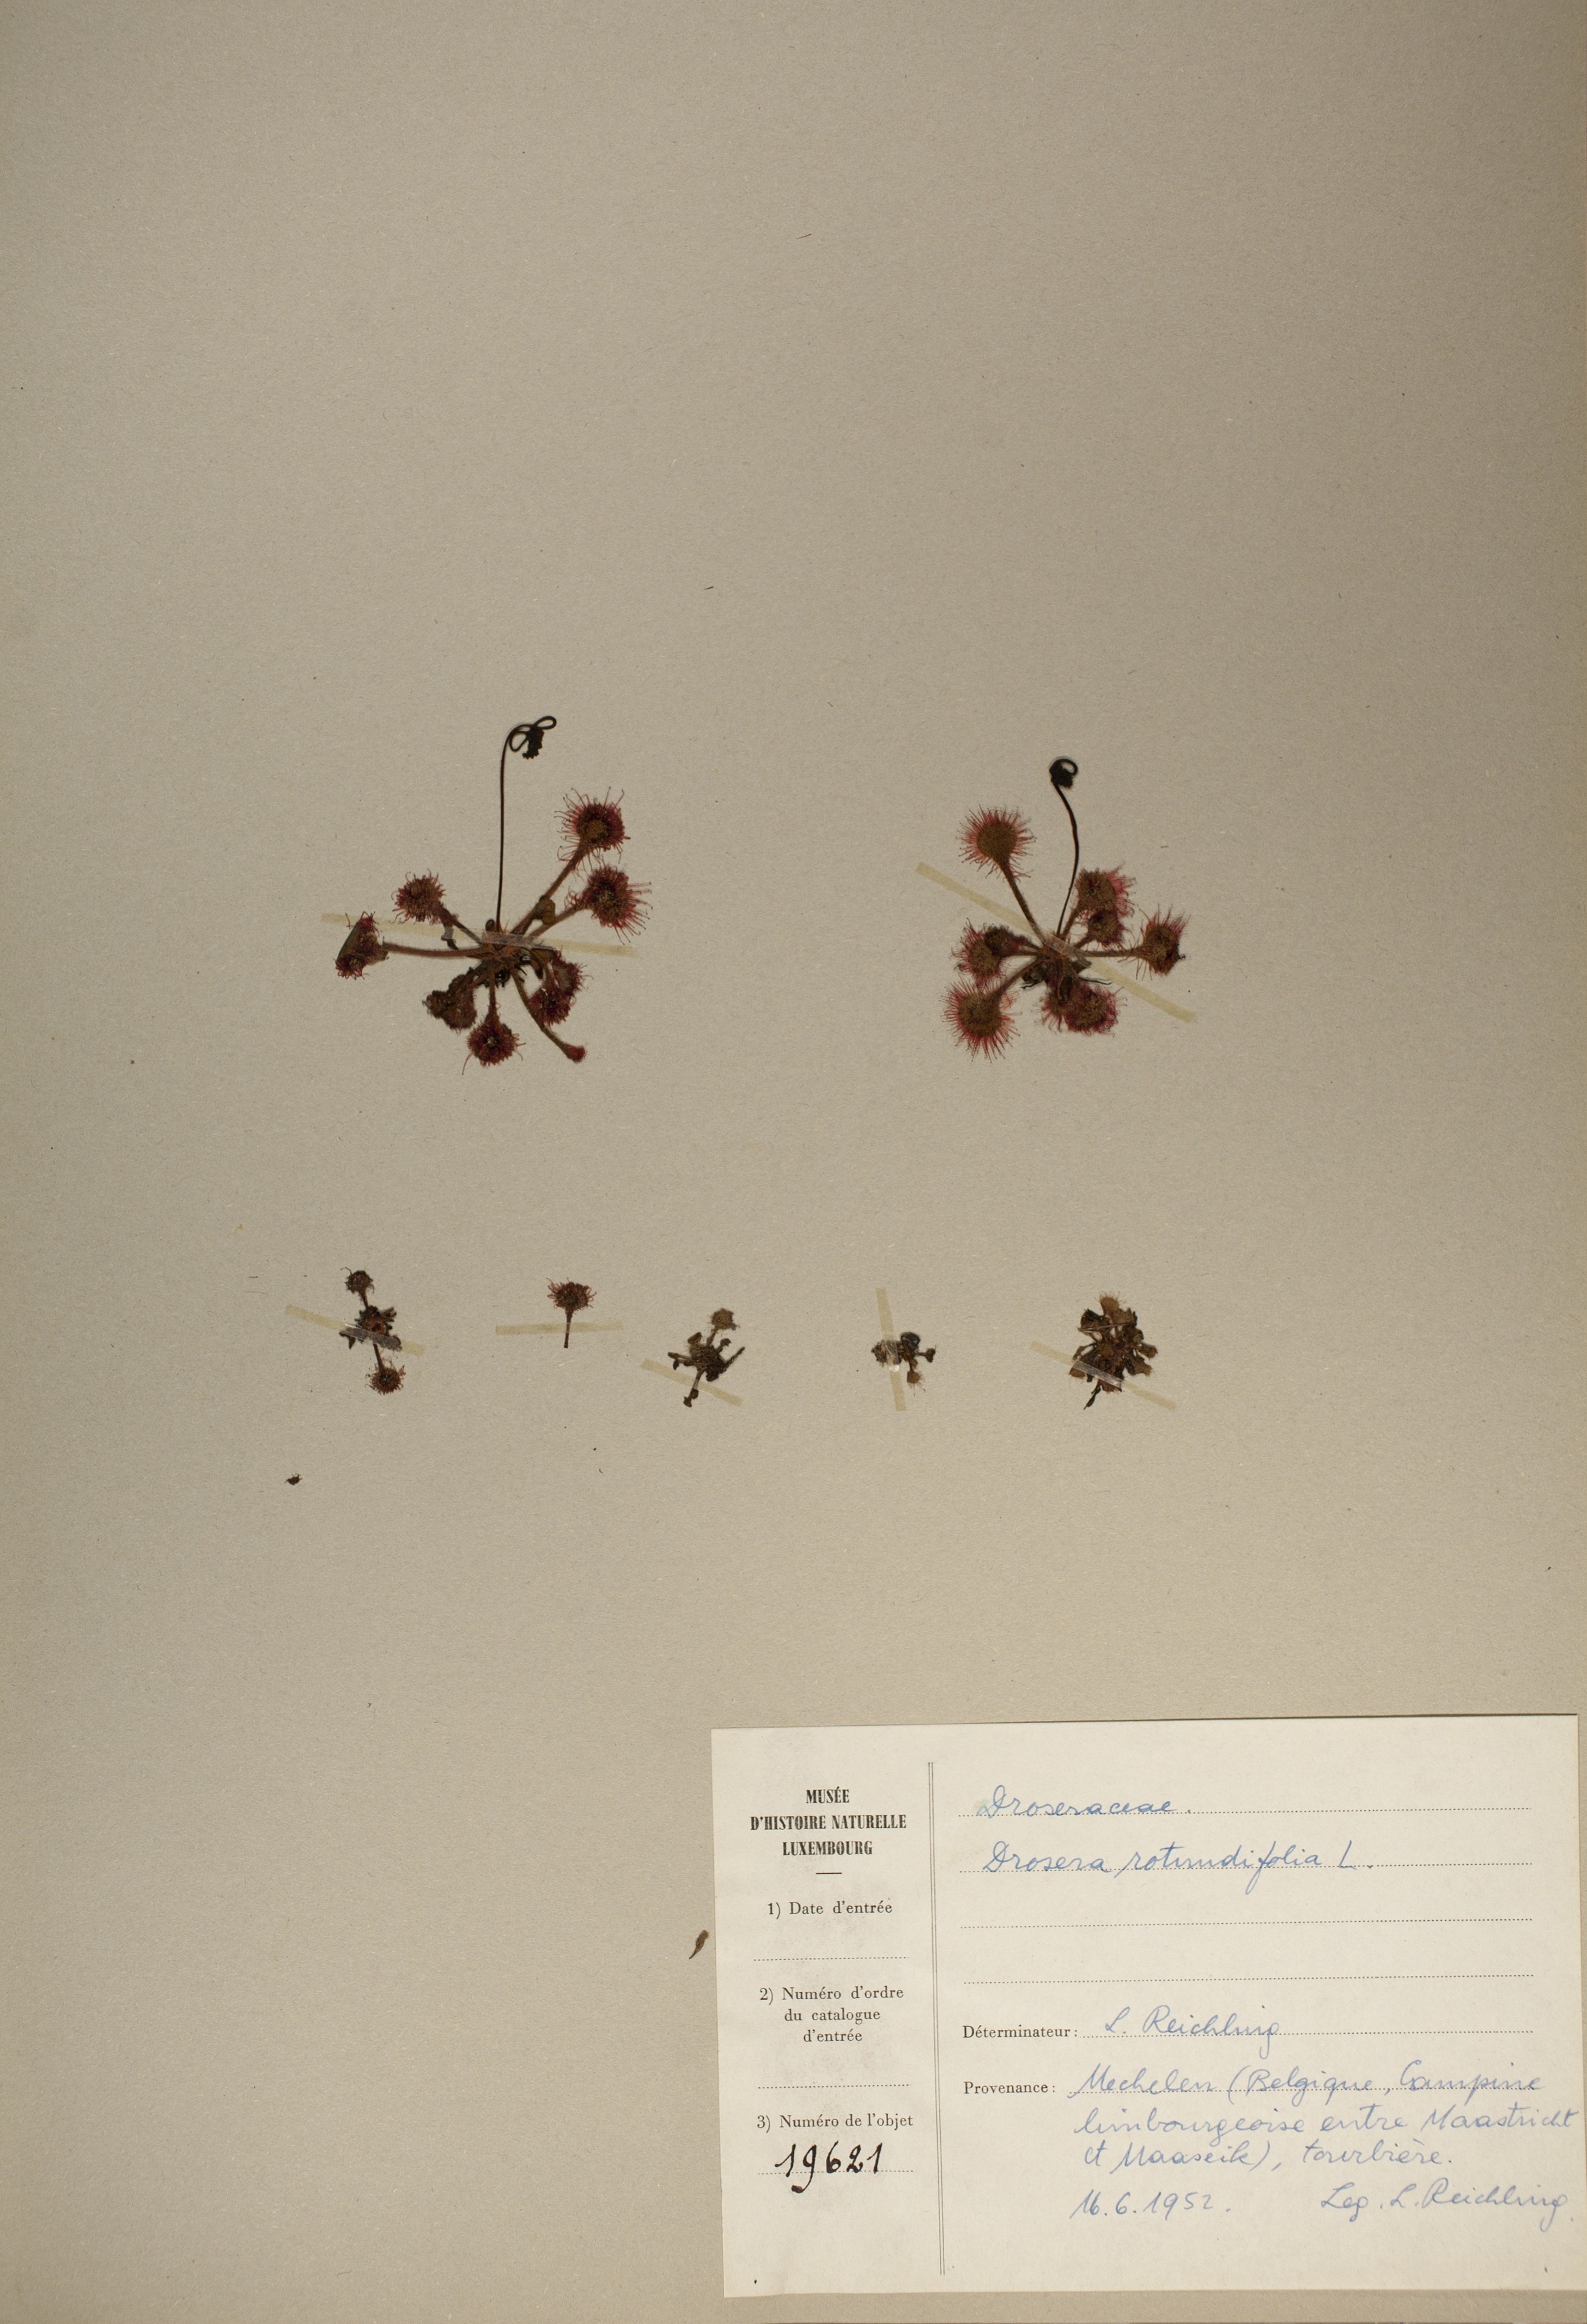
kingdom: Plantae
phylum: Tracheophyta
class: Magnoliopsida
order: Caryophyllales
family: Droseraceae
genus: Drosera
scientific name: Drosera rotundifolia
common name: Round-leaved sundew
